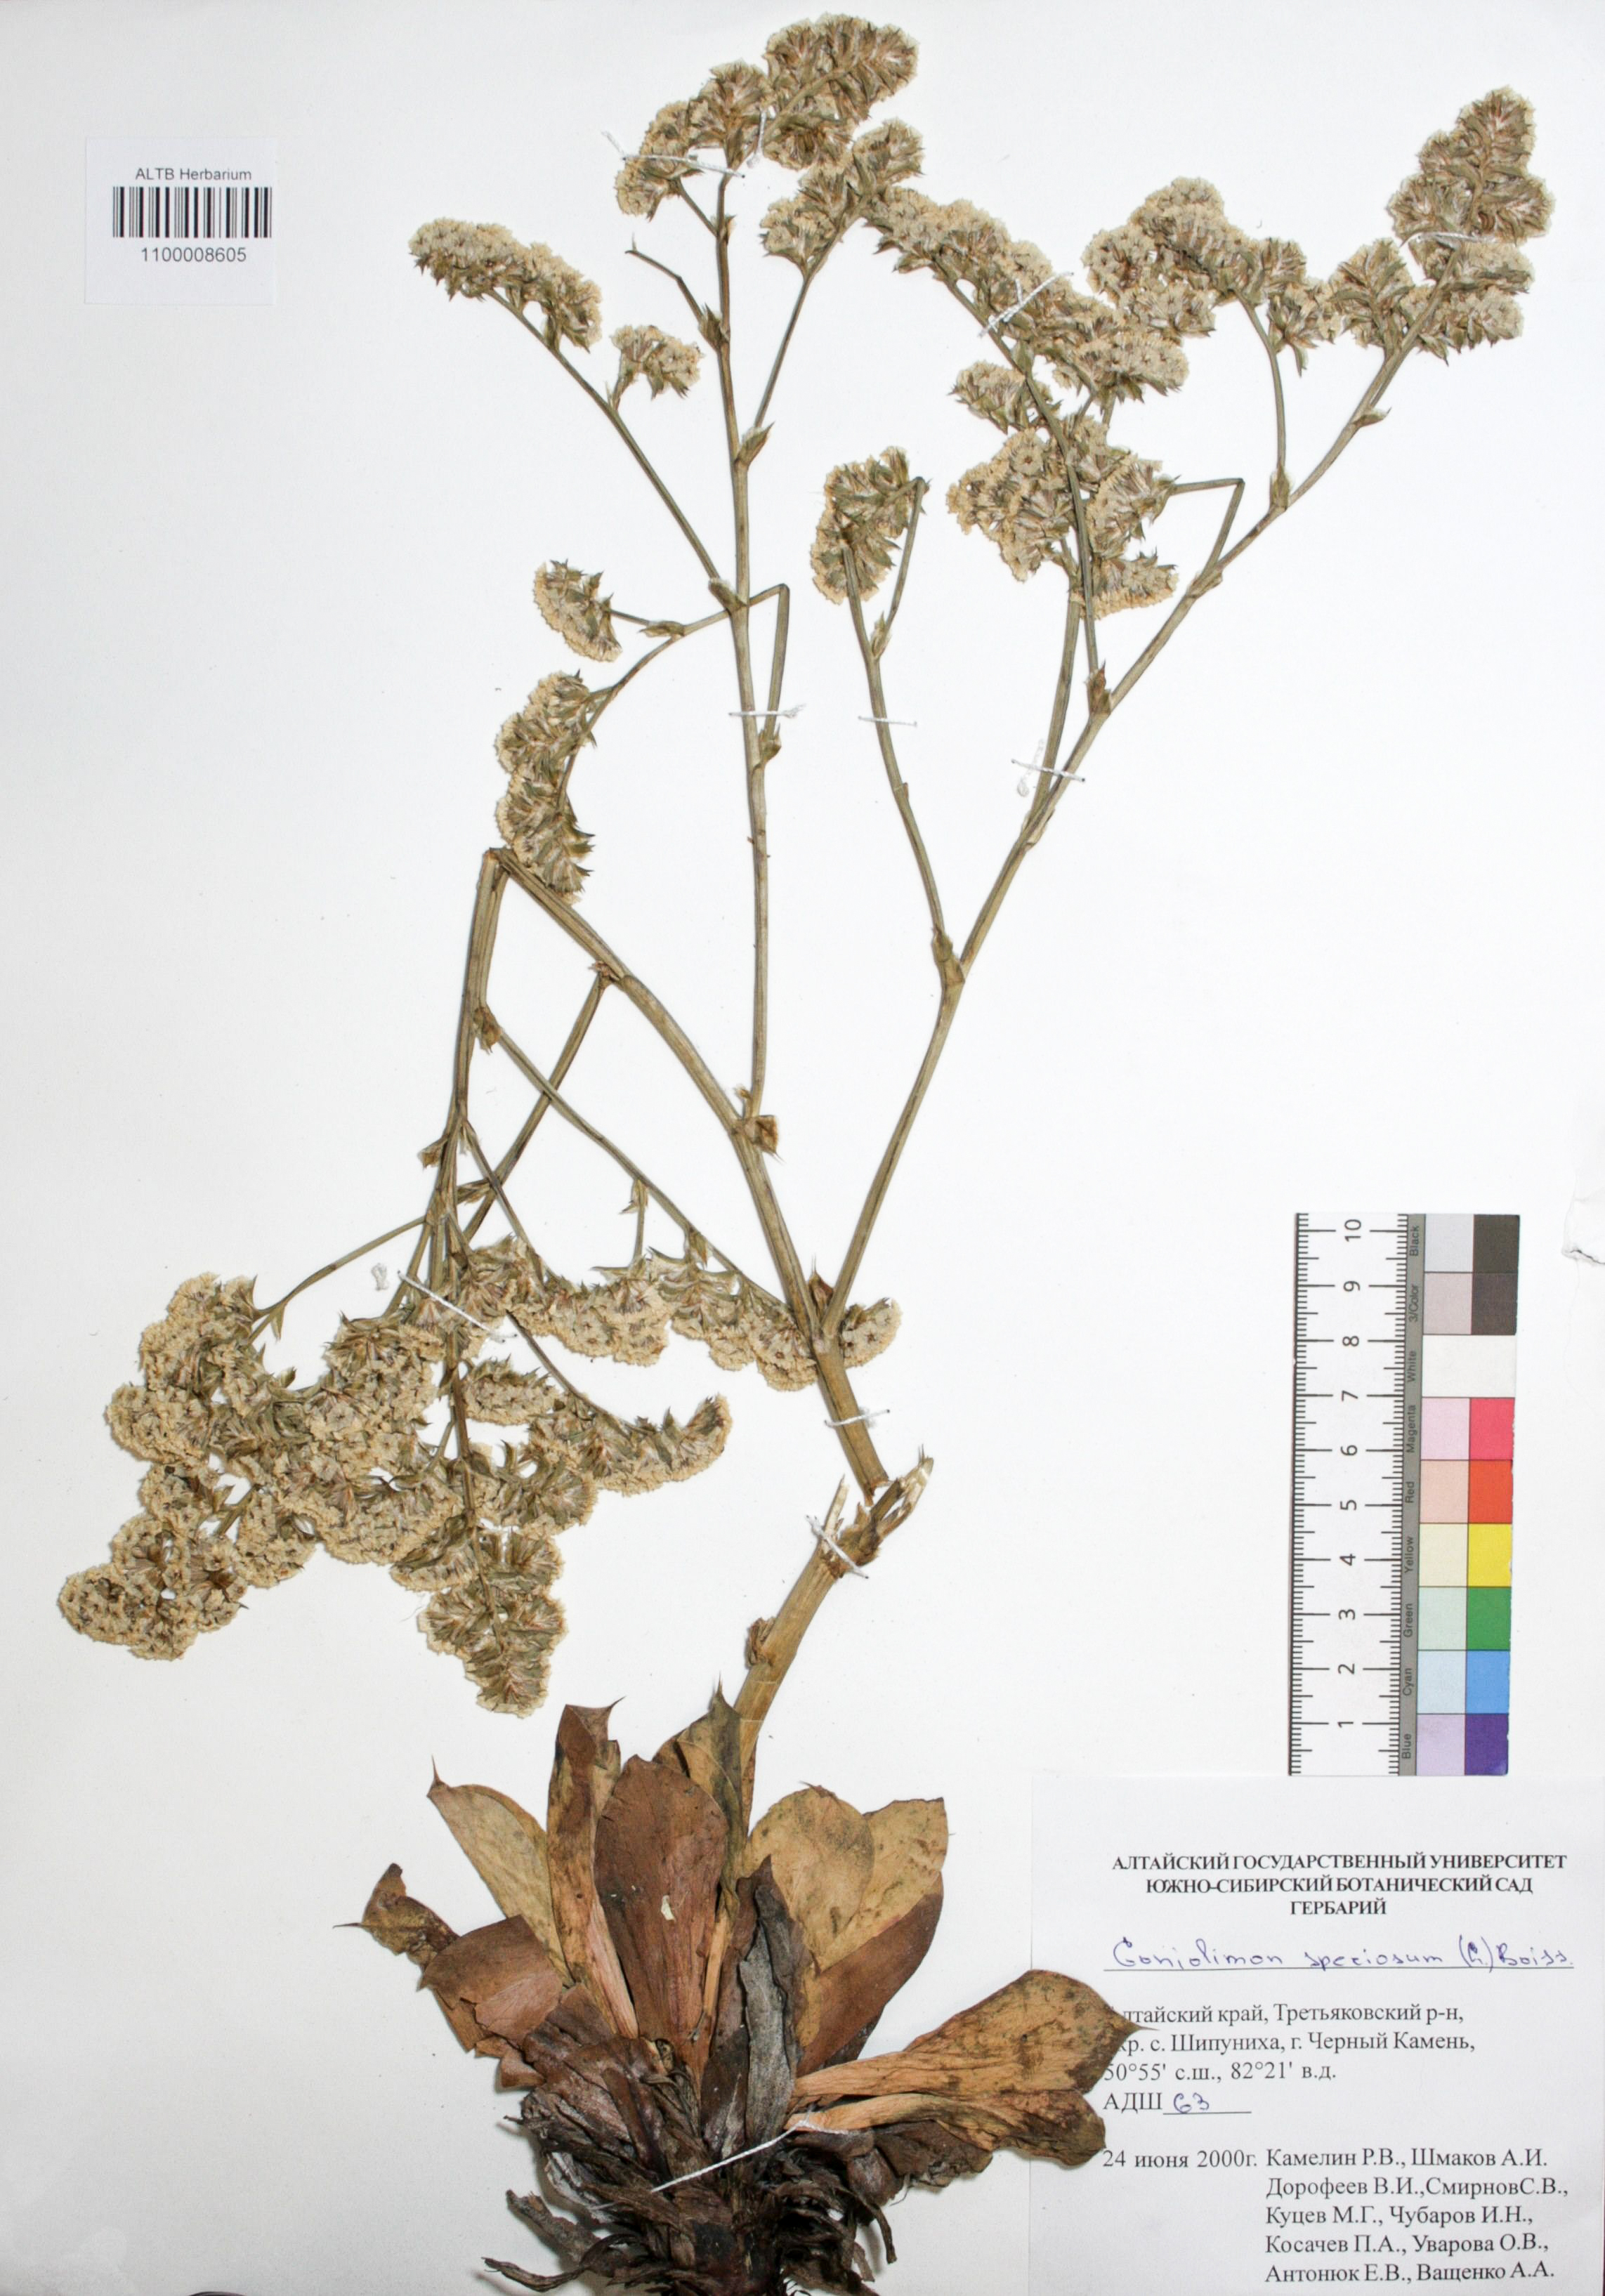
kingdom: Plantae
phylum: Tracheophyta
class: Magnoliopsida
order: Caryophyllales
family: Plumbaginaceae
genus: Goniolimon
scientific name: Goniolimon speciosum
